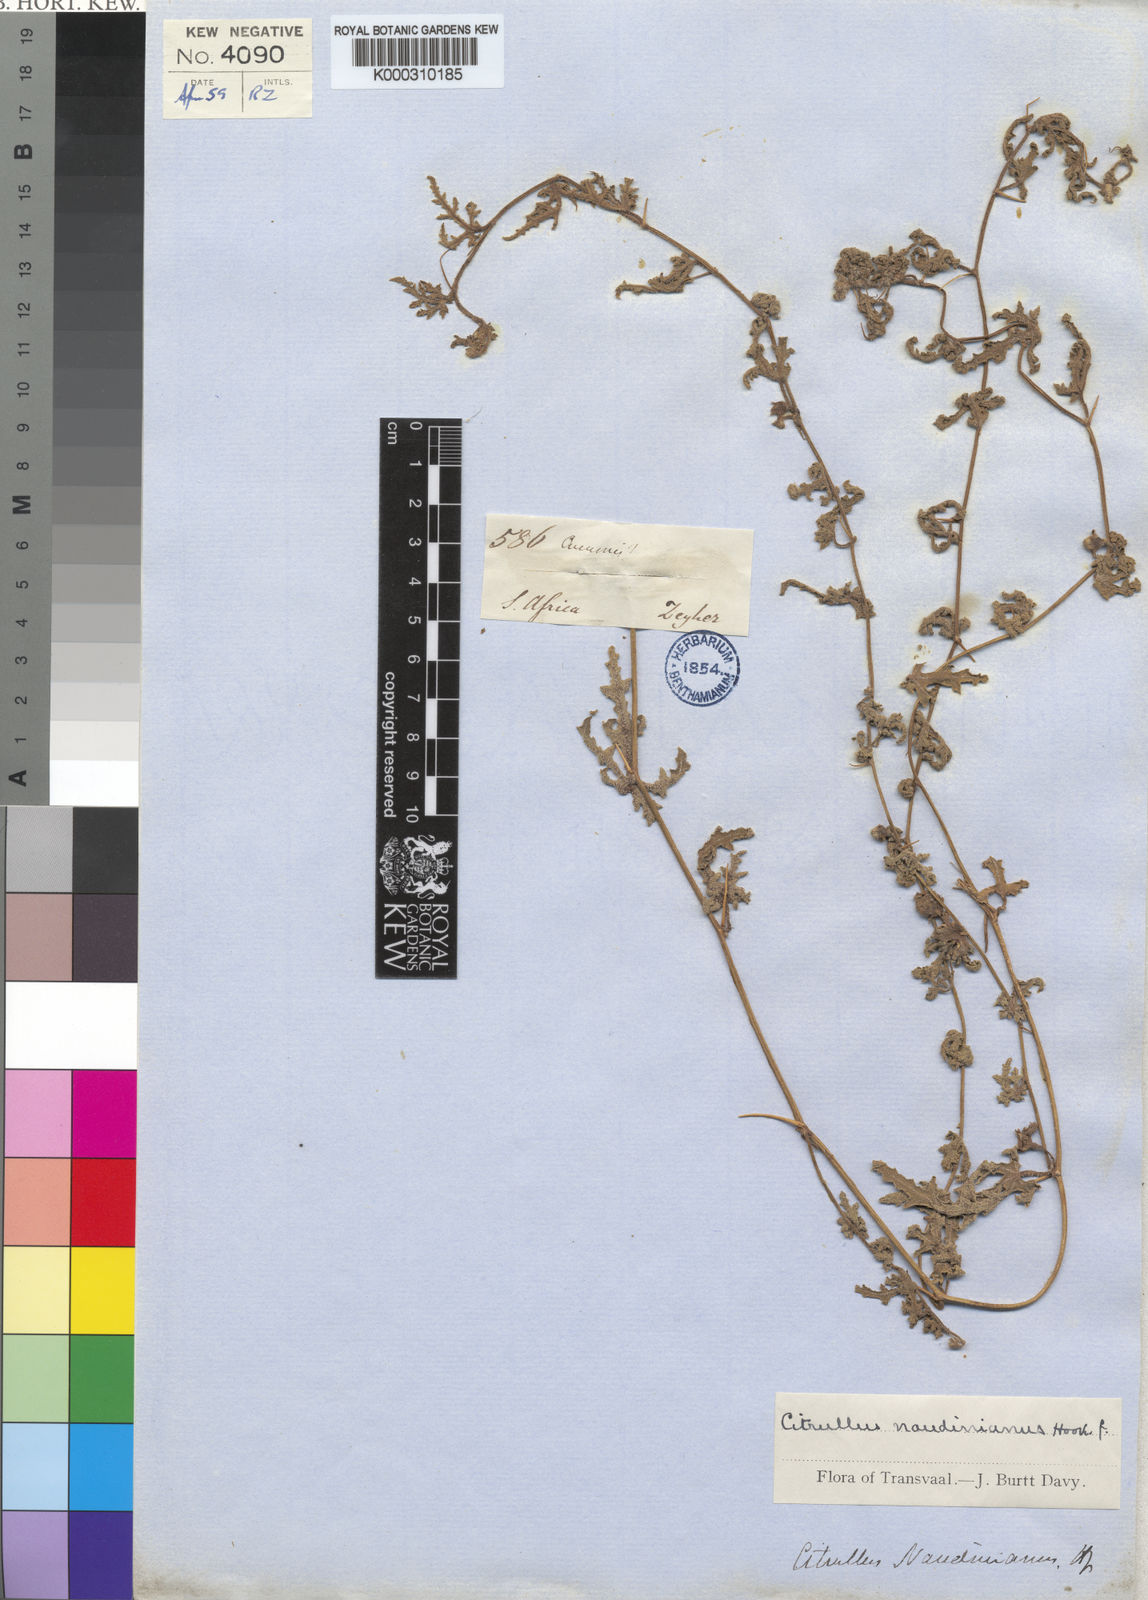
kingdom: Plantae
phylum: Tracheophyta
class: Magnoliopsida
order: Cucurbitales
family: Cucurbitaceae
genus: Citrullus
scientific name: Citrullus naudinianus
